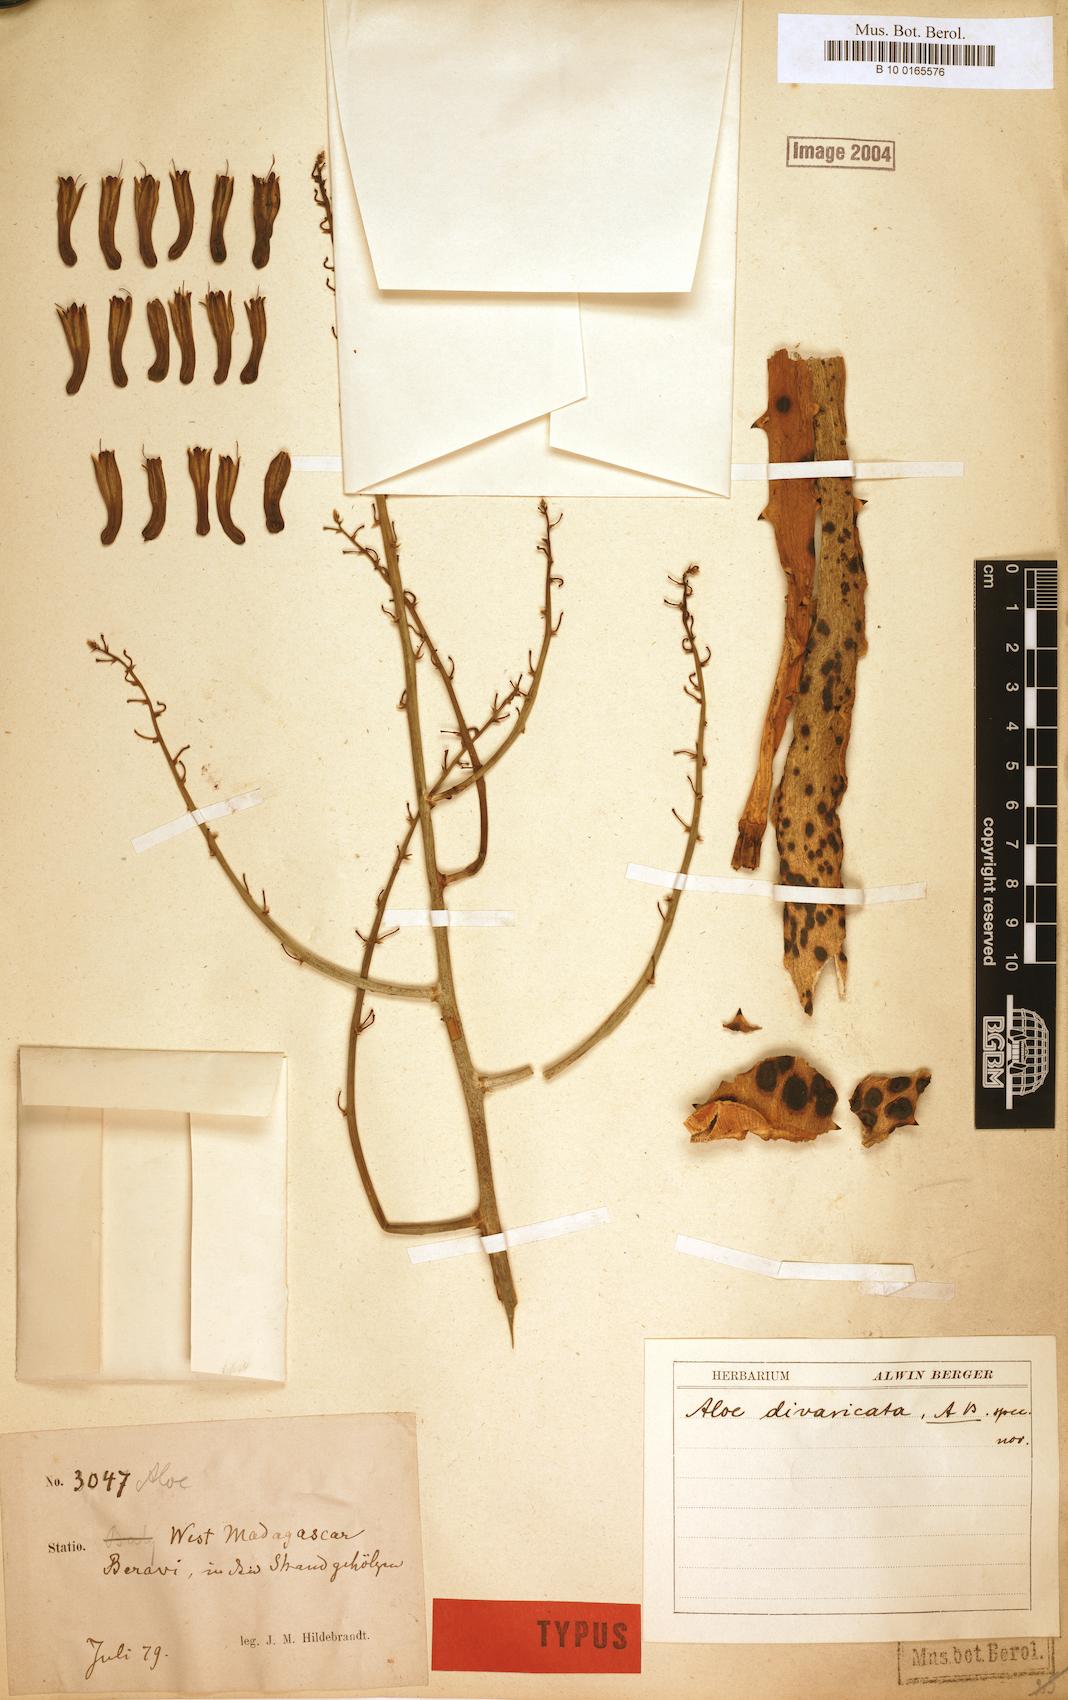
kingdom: Plantae
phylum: Tracheophyta
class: Liliopsida
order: Asparagales
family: Asphodelaceae
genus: Aloe
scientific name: Aloe divaricata
